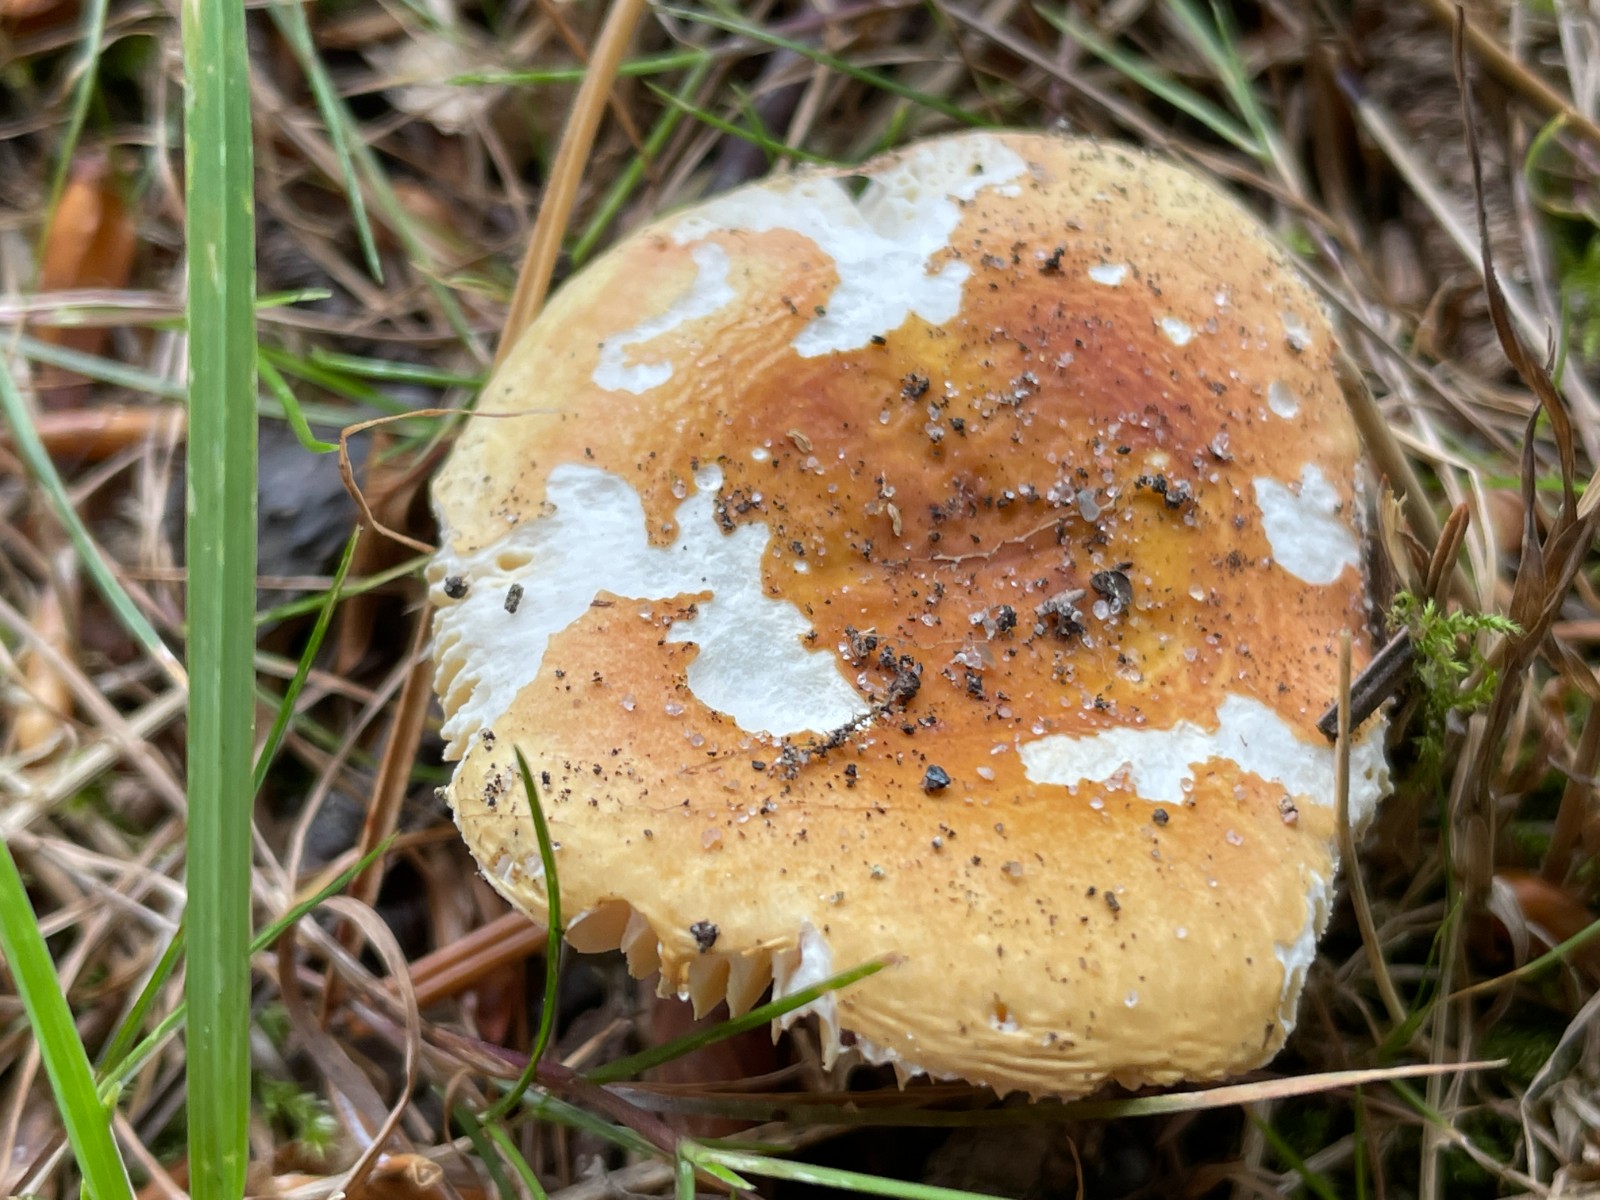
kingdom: Fungi
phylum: Basidiomycota
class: Agaricomycetes
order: Russulales
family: Russulaceae
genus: Russula
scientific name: Russula risigallina
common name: abrikos-skørhat
